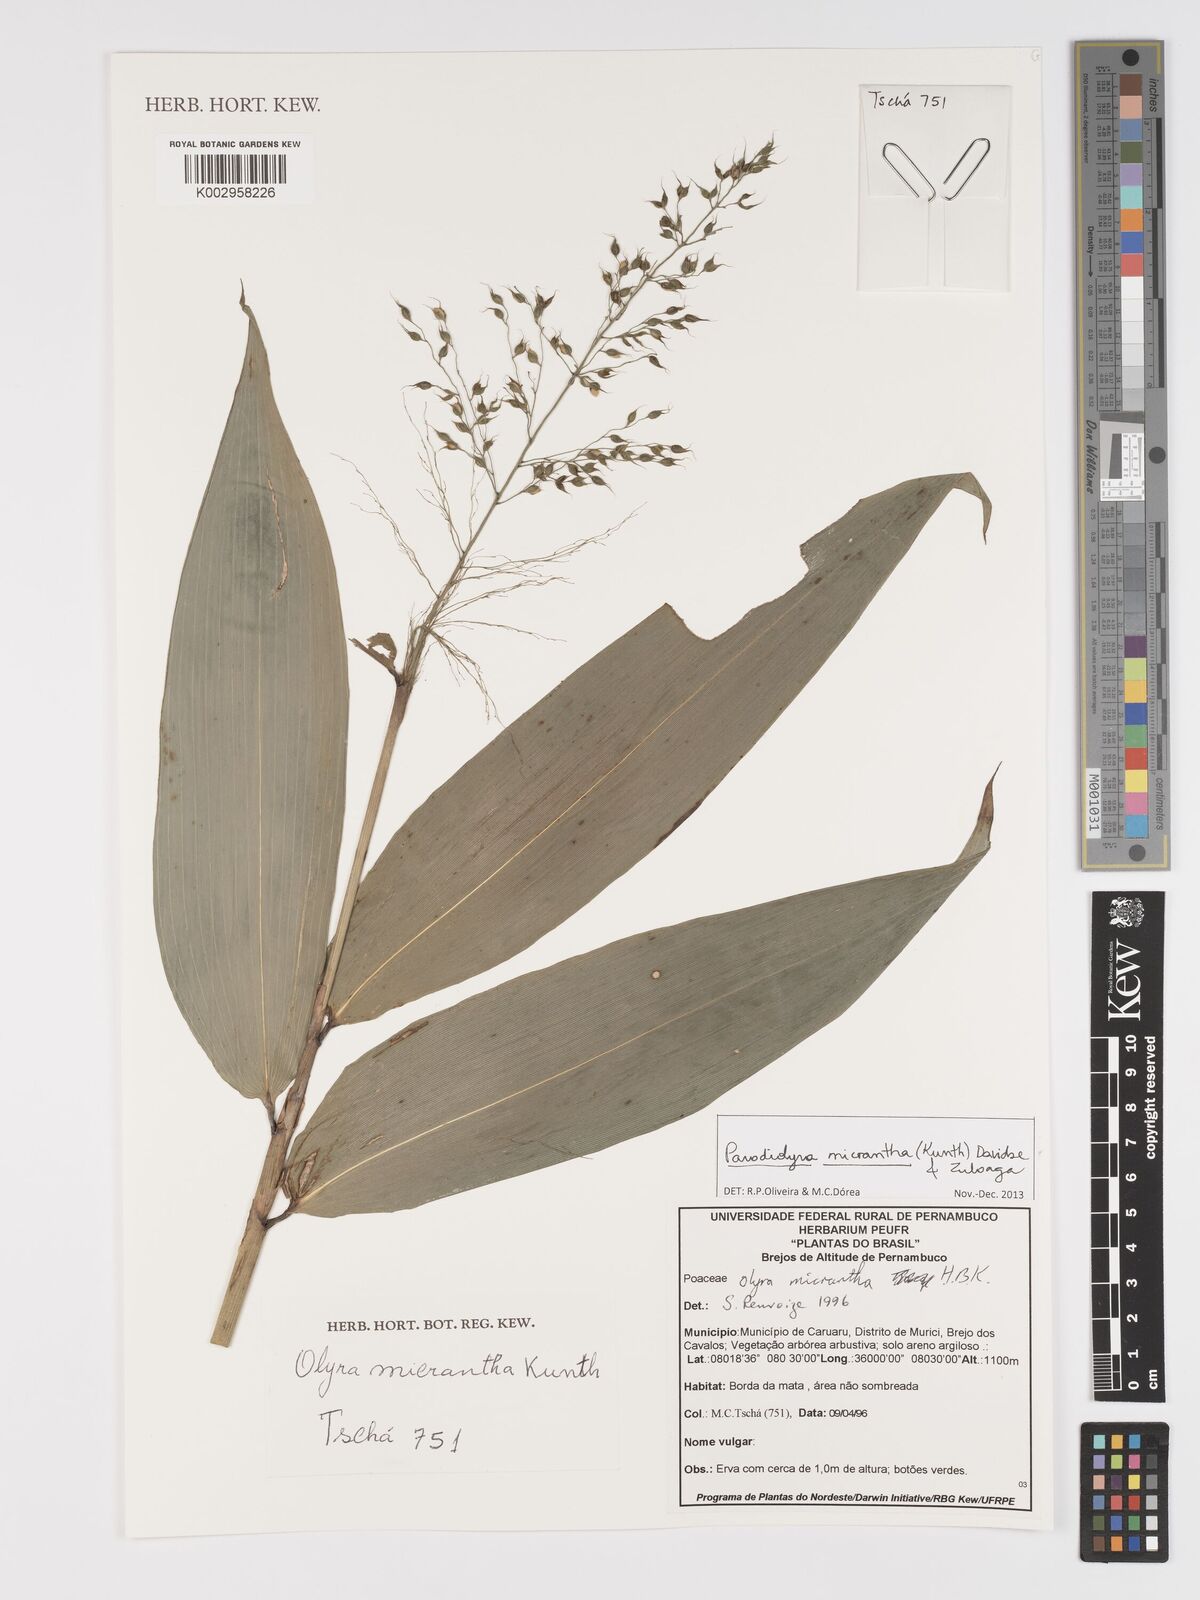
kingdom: Plantae
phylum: Tracheophyta
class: Liliopsida
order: Poales
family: Poaceae
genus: Taquara
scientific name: Taquara micrantha
